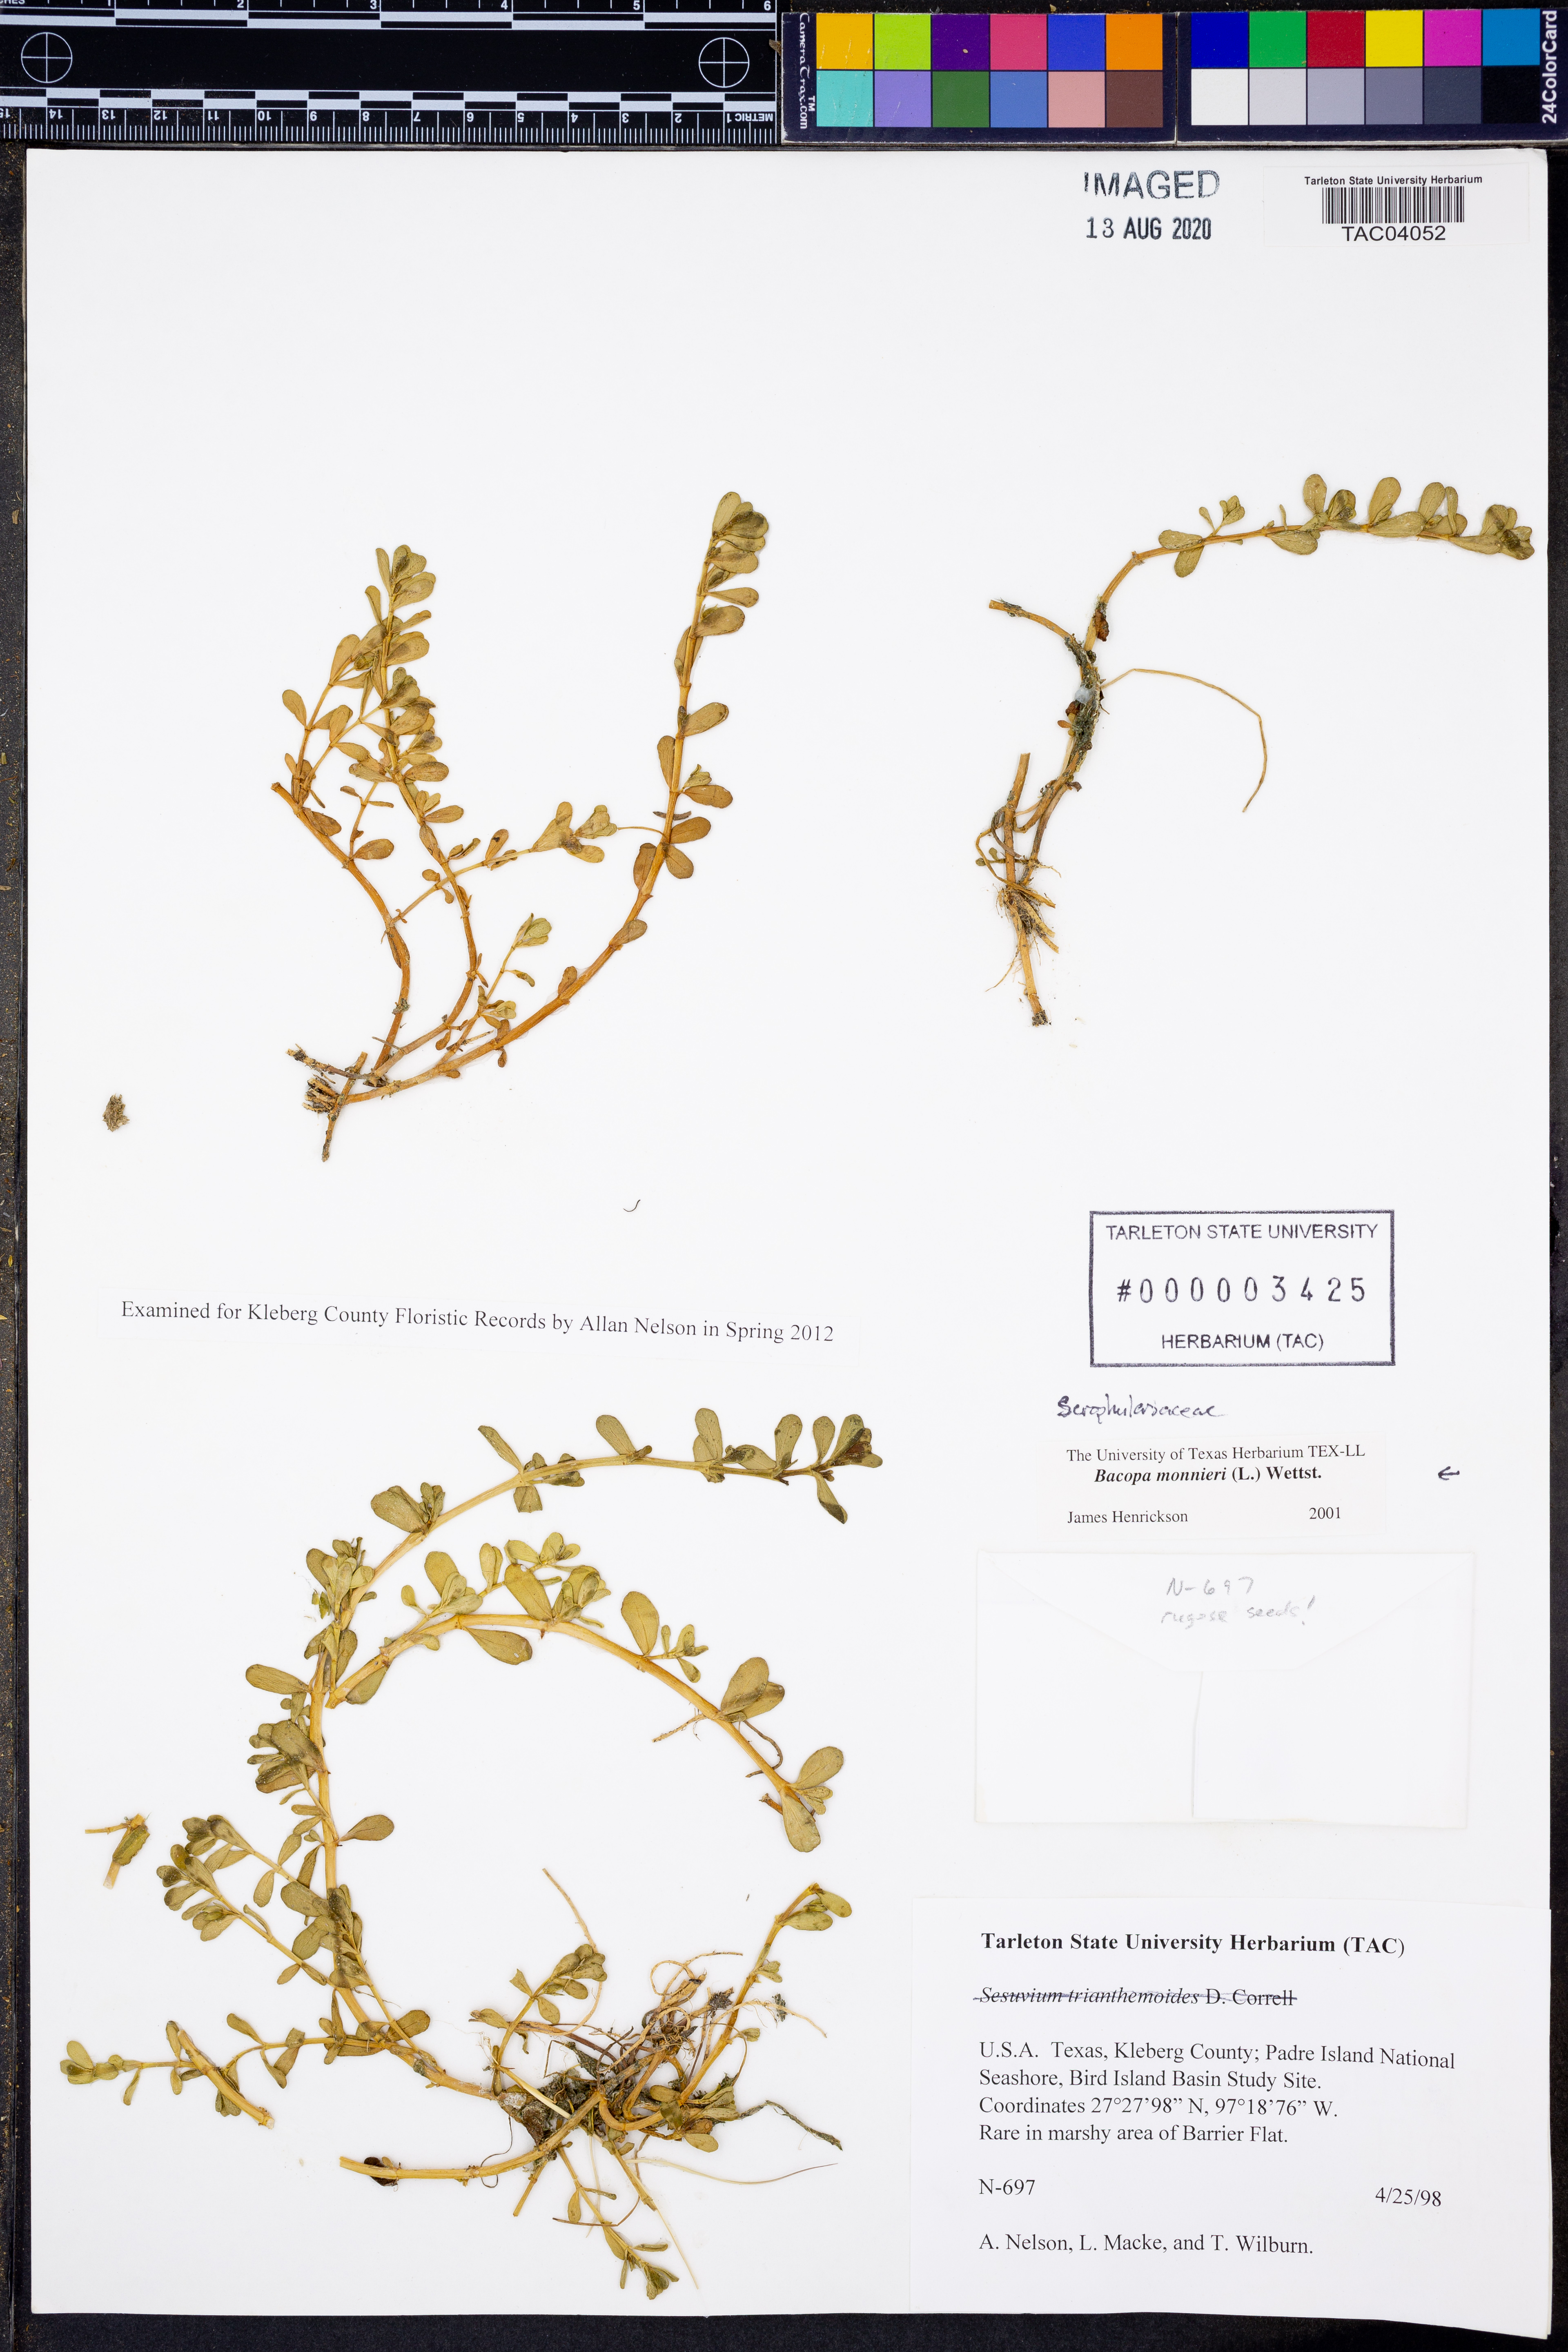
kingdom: Plantae
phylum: Tracheophyta
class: Magnoliopsida
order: Lamiales
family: Plantaginaceae
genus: Bacopa
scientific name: Bacopa monnieri
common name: Indian-pennywort
